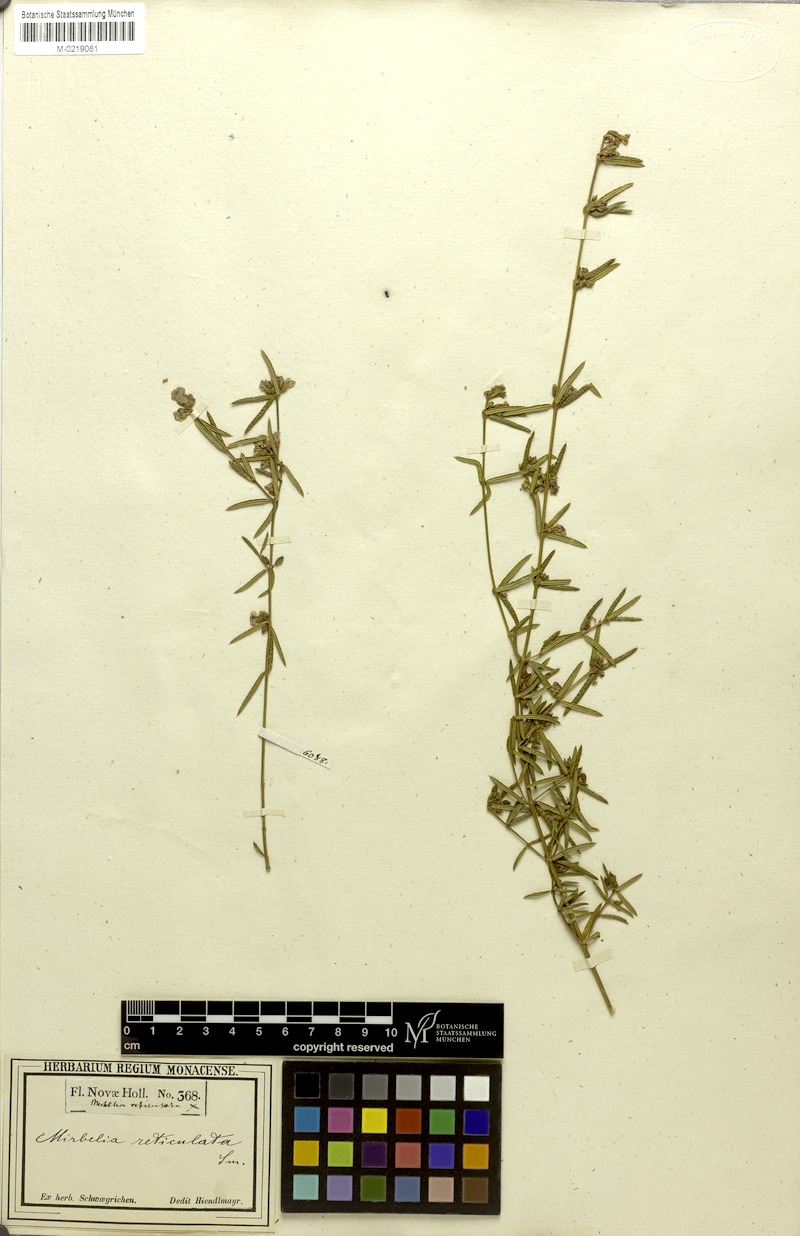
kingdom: Plantae
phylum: Tracheophyta
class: Magnoliopsida
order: Fabales
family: Fabaceae
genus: Mirbelia
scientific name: Mirbelia rubiifolia
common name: Heathy mirbelia
